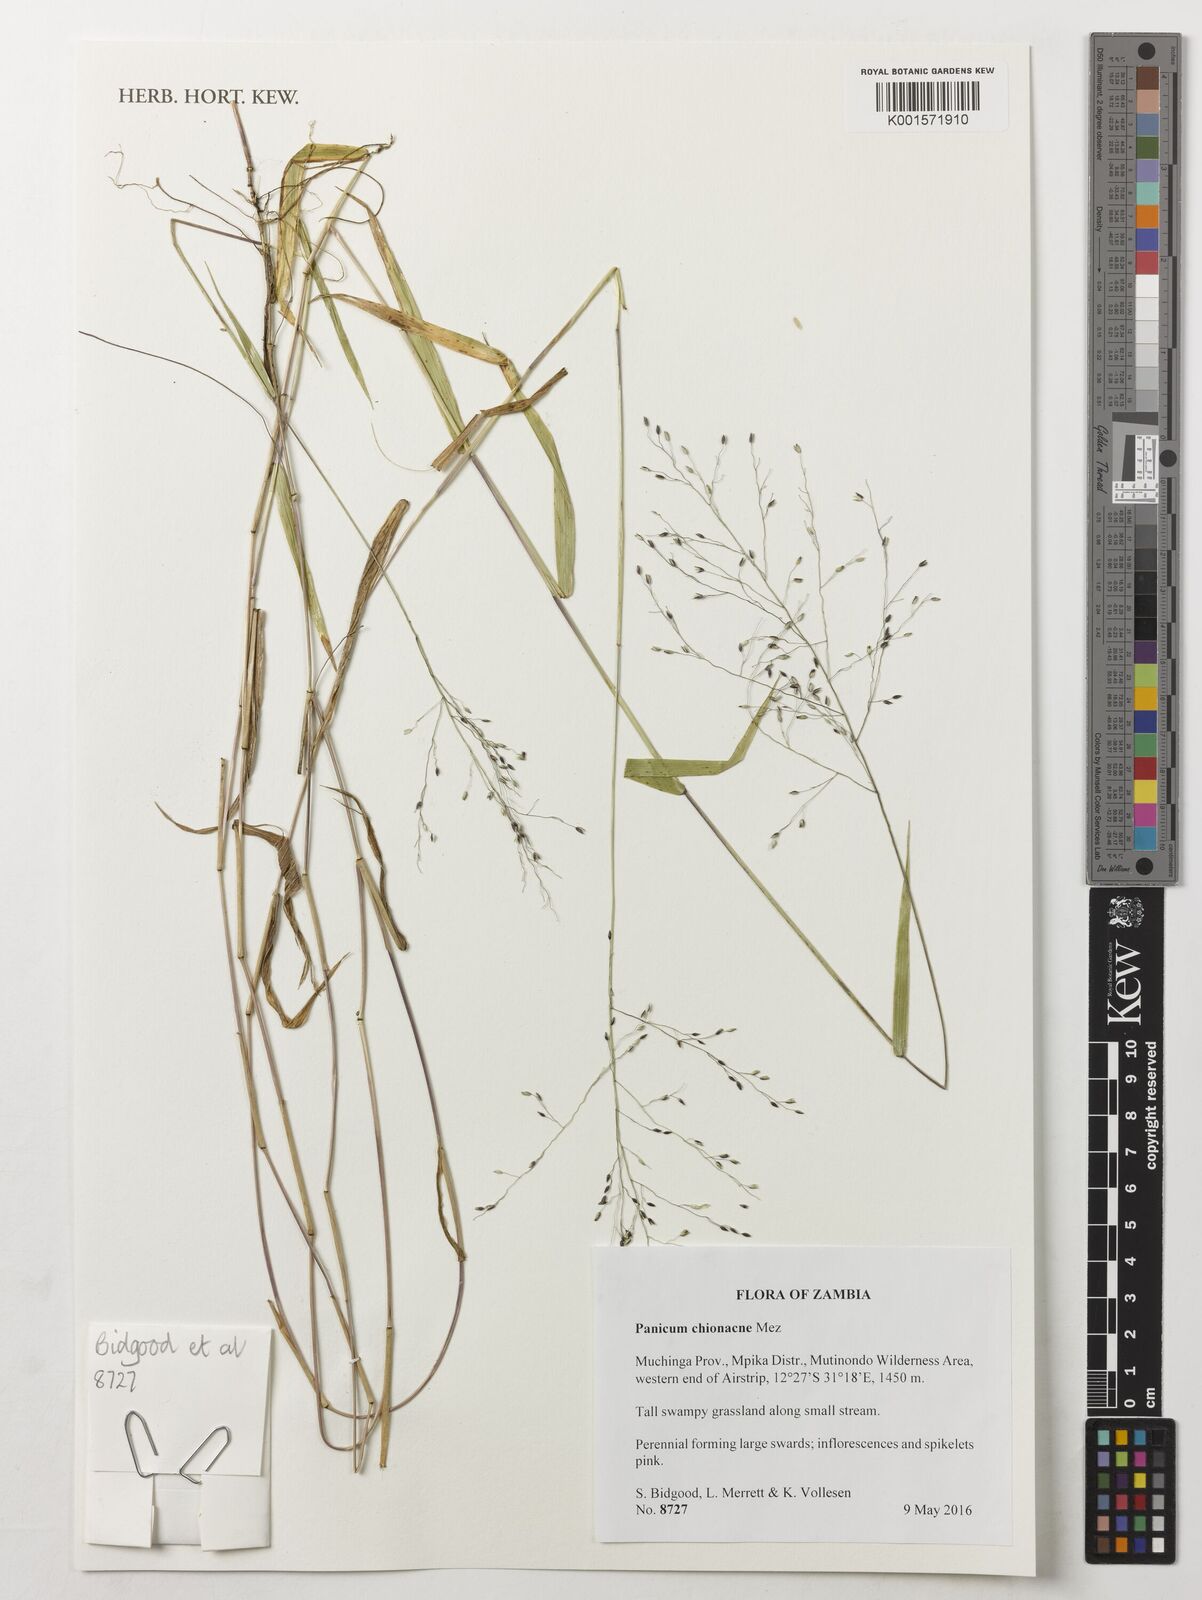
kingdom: Plantae
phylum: Tracheophyta
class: Liliopsida
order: Poales
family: Poaceae
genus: Panicum
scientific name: Panicum chionachne
